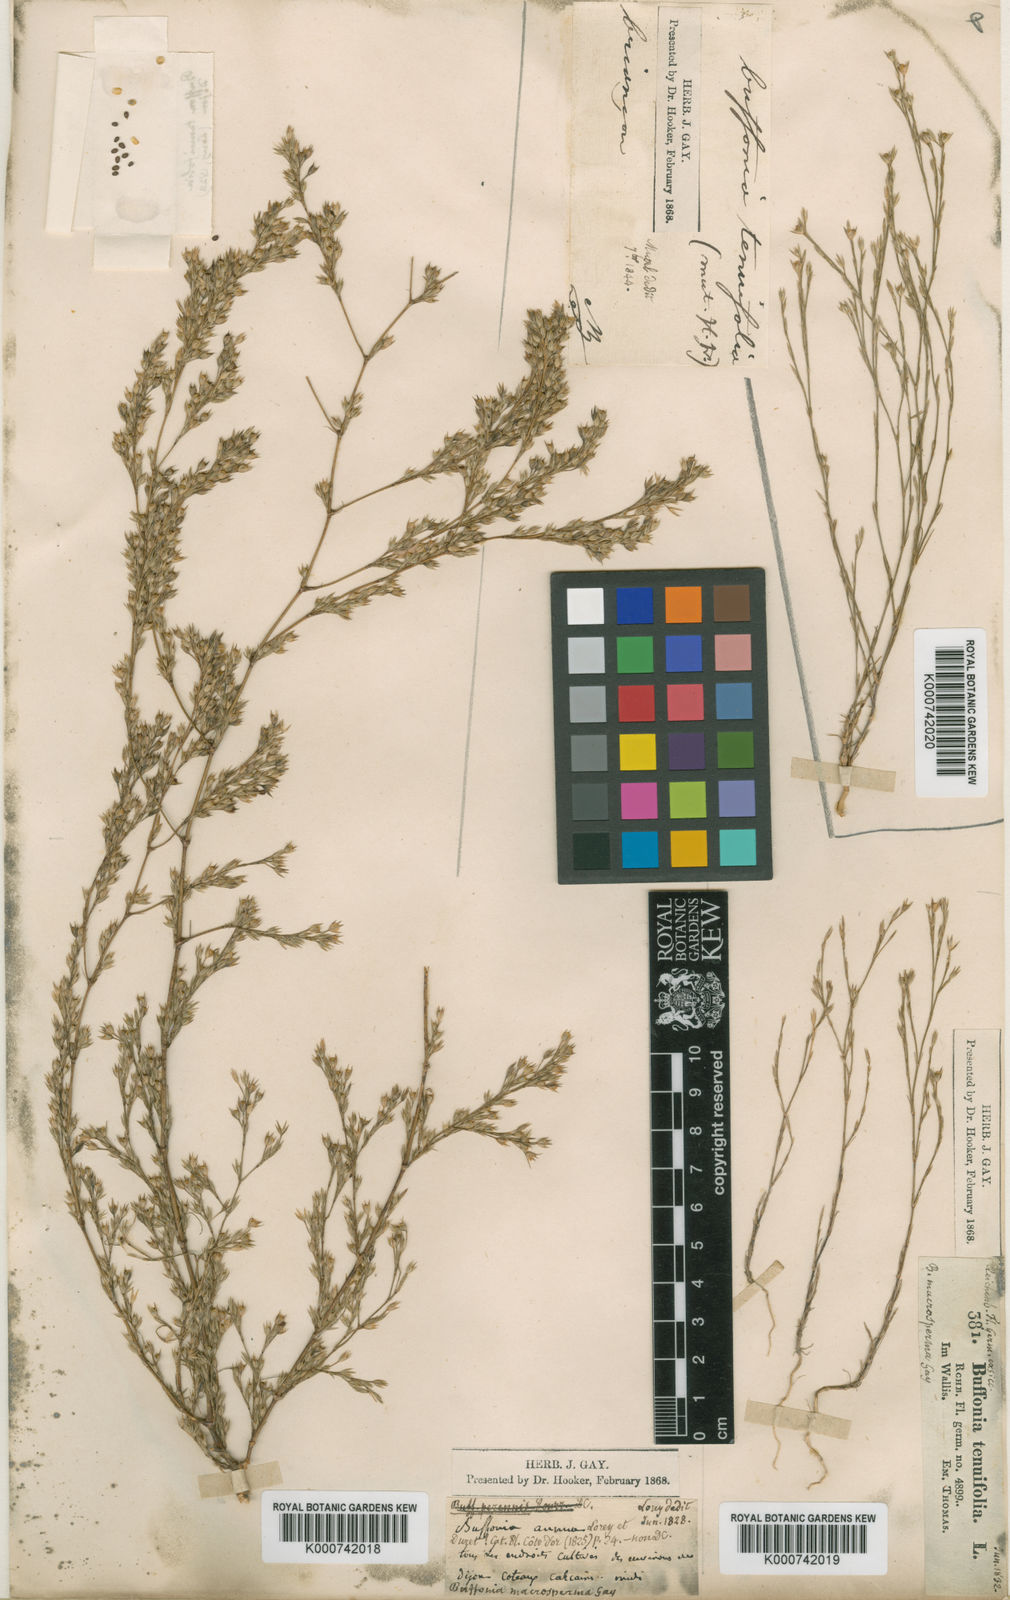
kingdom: Plantae
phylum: Tracheophyta
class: Magnoliopsida
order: Caryophyllales
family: Caryophyllaceae
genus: Bufonia
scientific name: Bufonia tenuifolia
